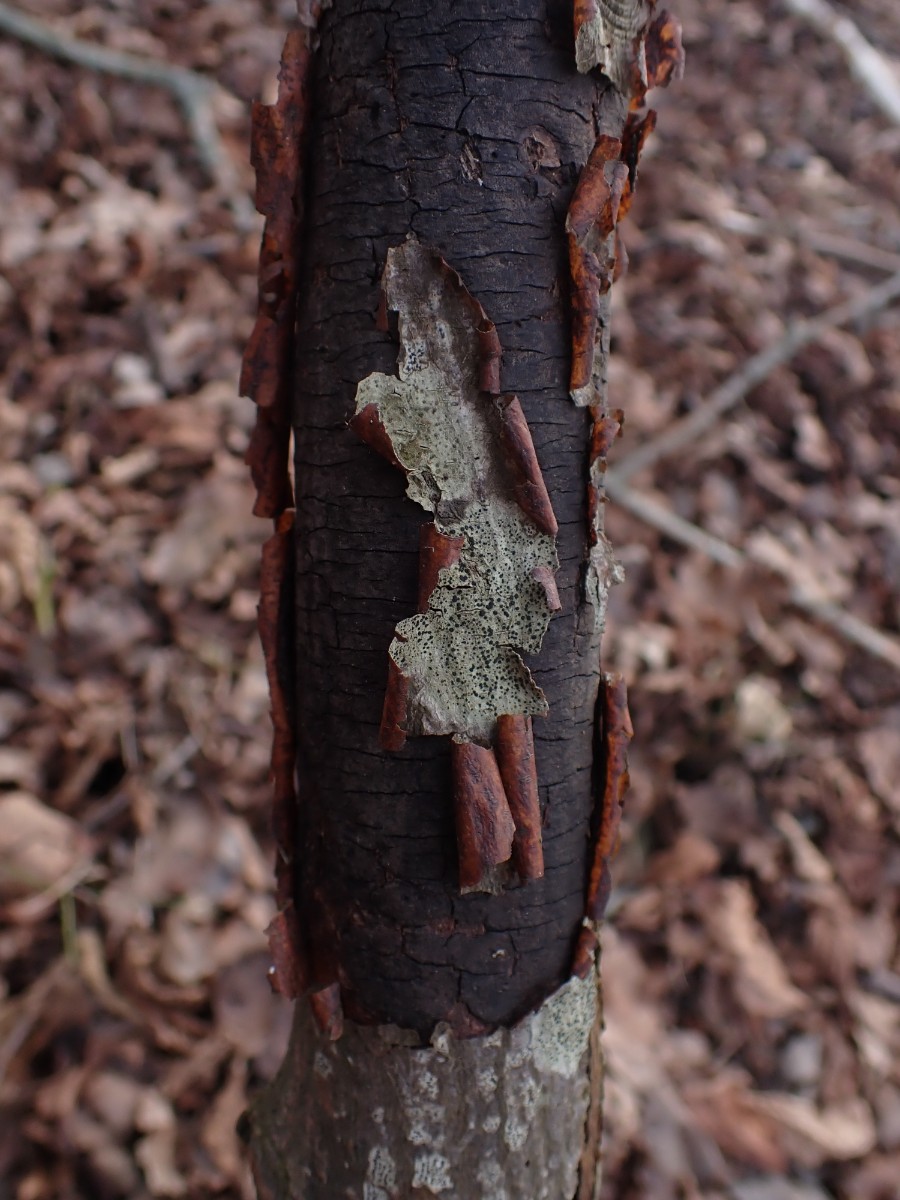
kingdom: Fungi
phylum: Ascomycota
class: Sordariomycetes
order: Xylariales
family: Diatrypaceae
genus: Diatrype
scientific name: Diatrype
